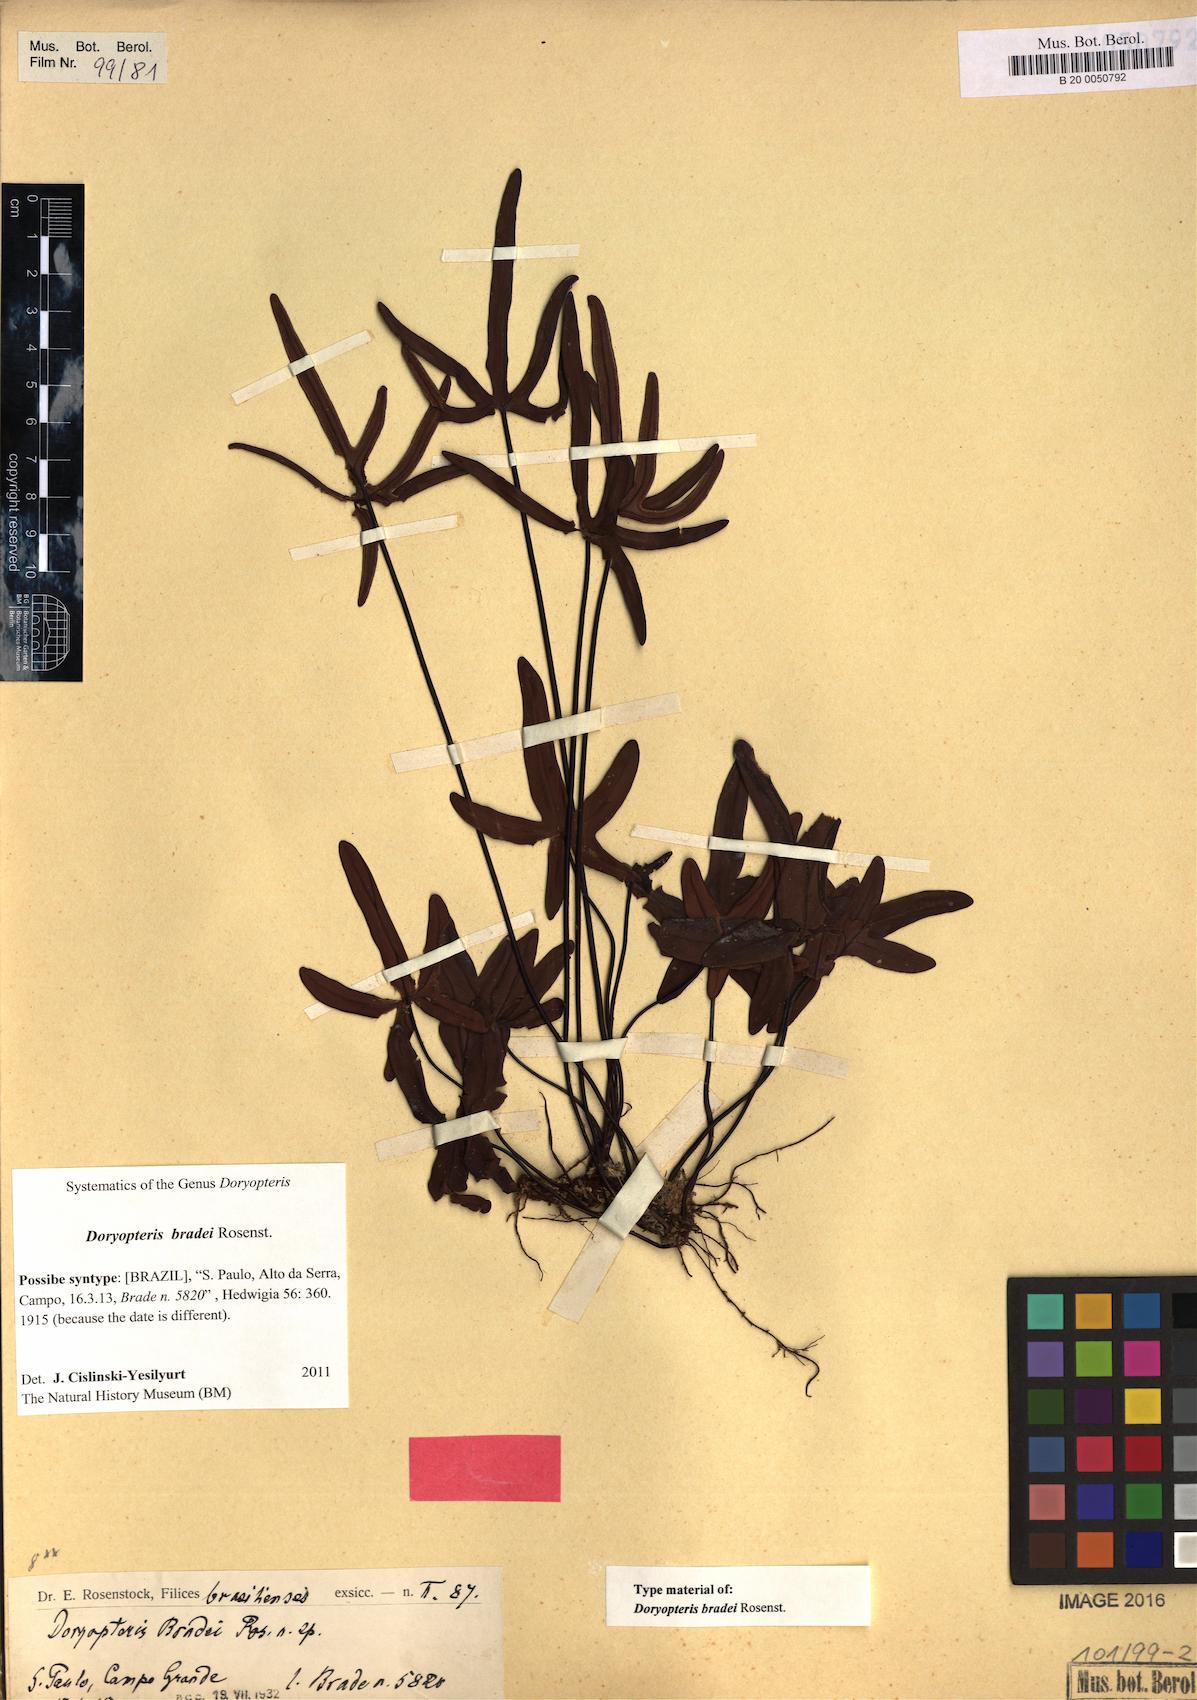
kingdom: Plantae
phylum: Tracheophyta
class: Polypodiopsida
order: Polypodiales
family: Pteridaceae
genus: Lytoneuron
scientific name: Lytoneuron bradei
